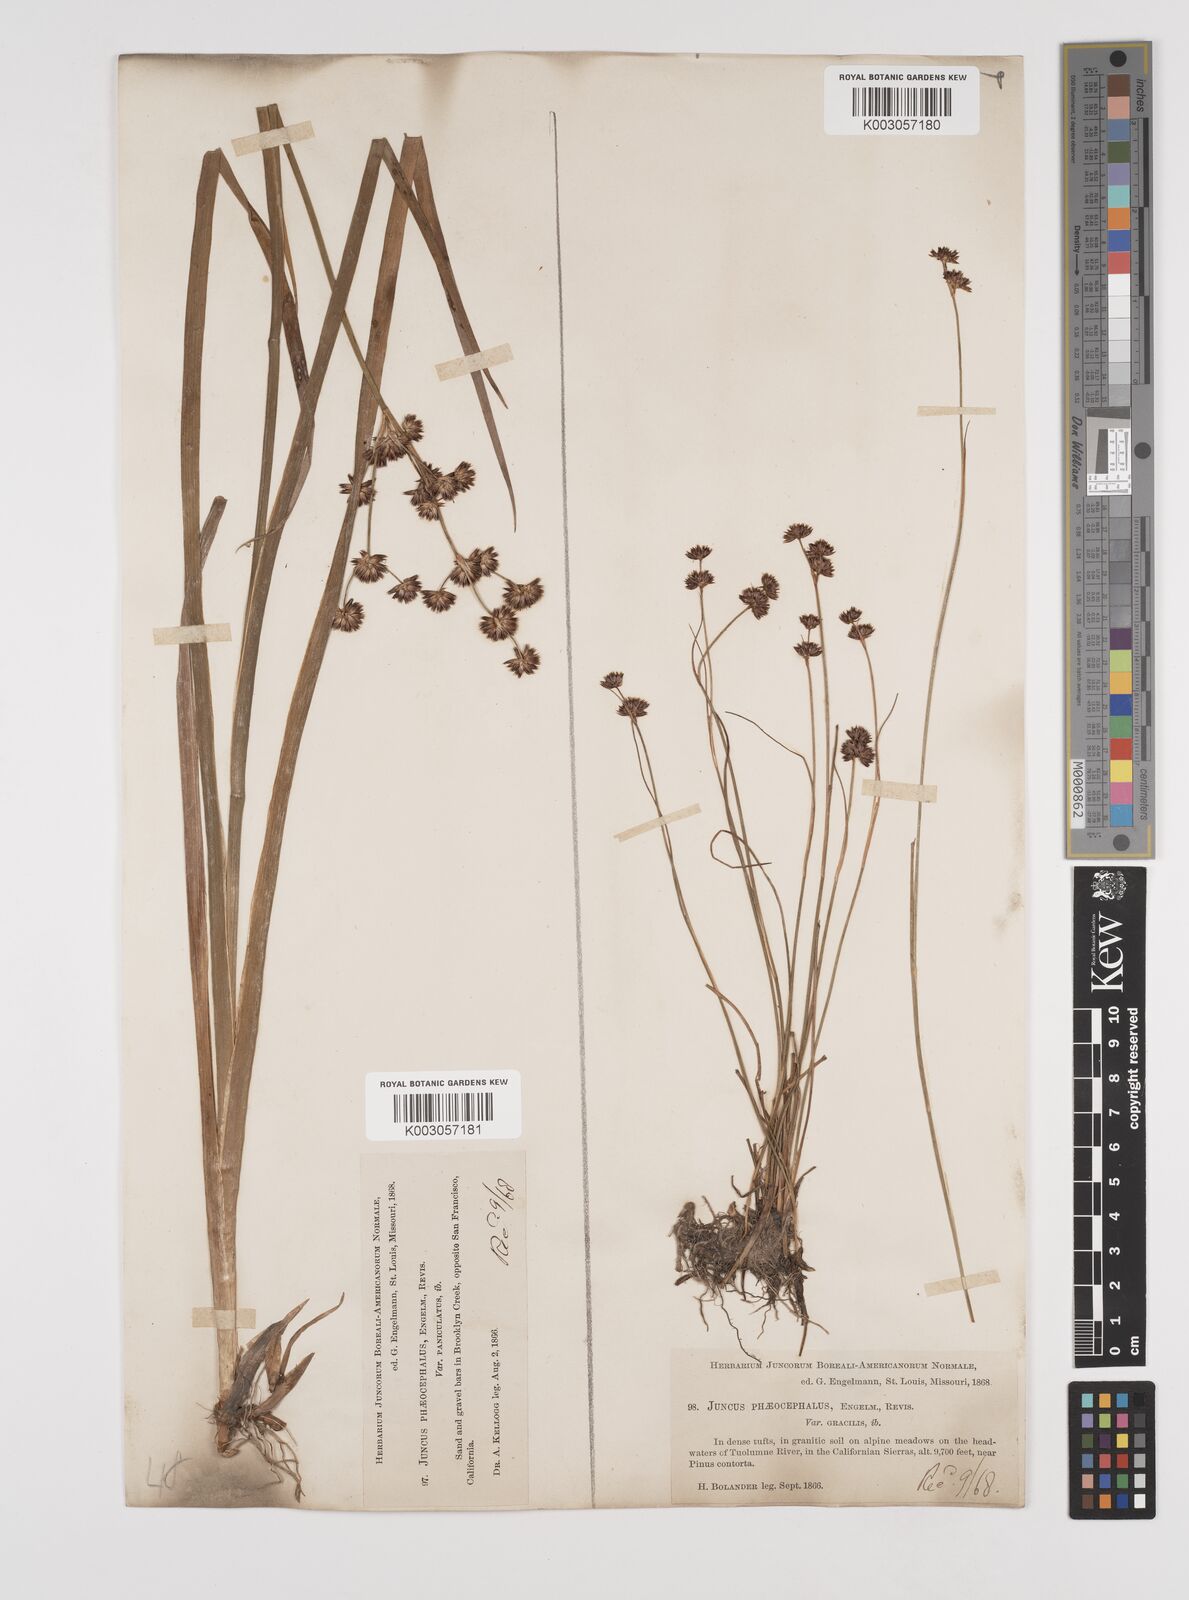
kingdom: Plantae
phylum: Tracheophyta
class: Liliopsida
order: Poales
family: Juncaceae
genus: Juncus
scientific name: Juncus phaeocephalus
